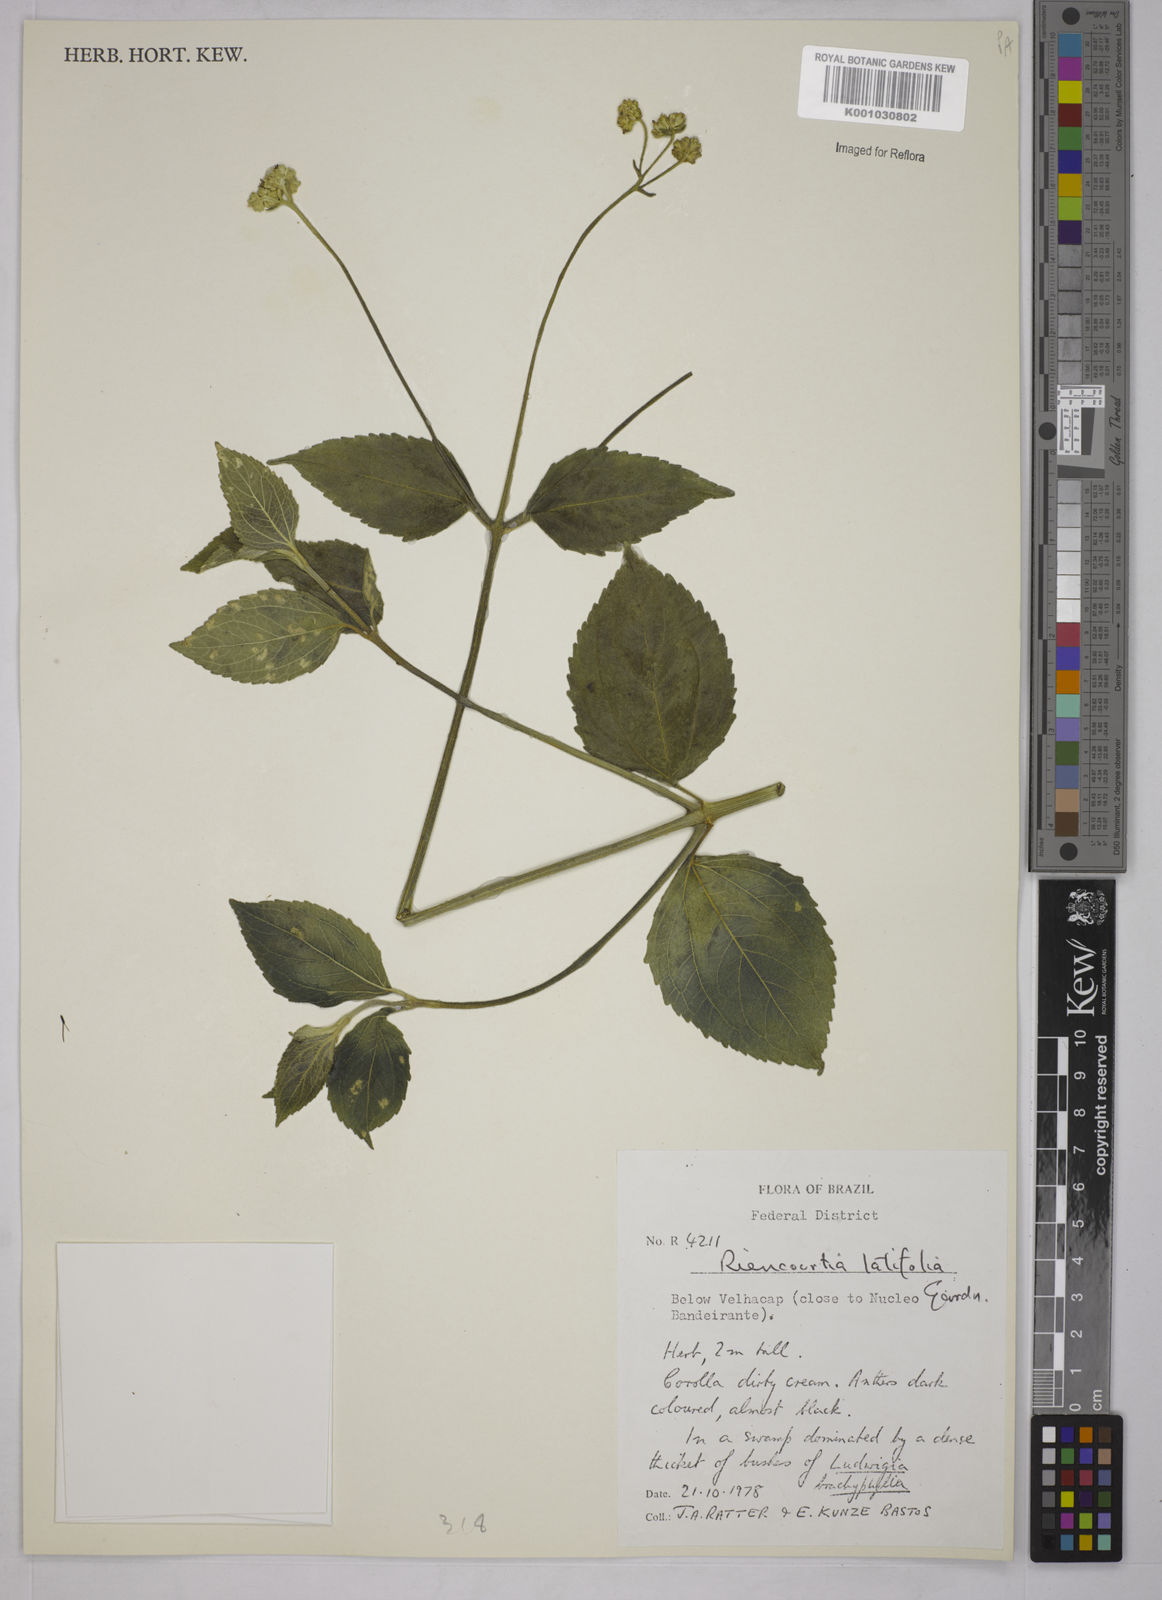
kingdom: Plantae
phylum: Tracheophyta
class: Magnoliopsida
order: Asterales
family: Asteraceae
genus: Riencourtia
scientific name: Riencourtia latifolia
